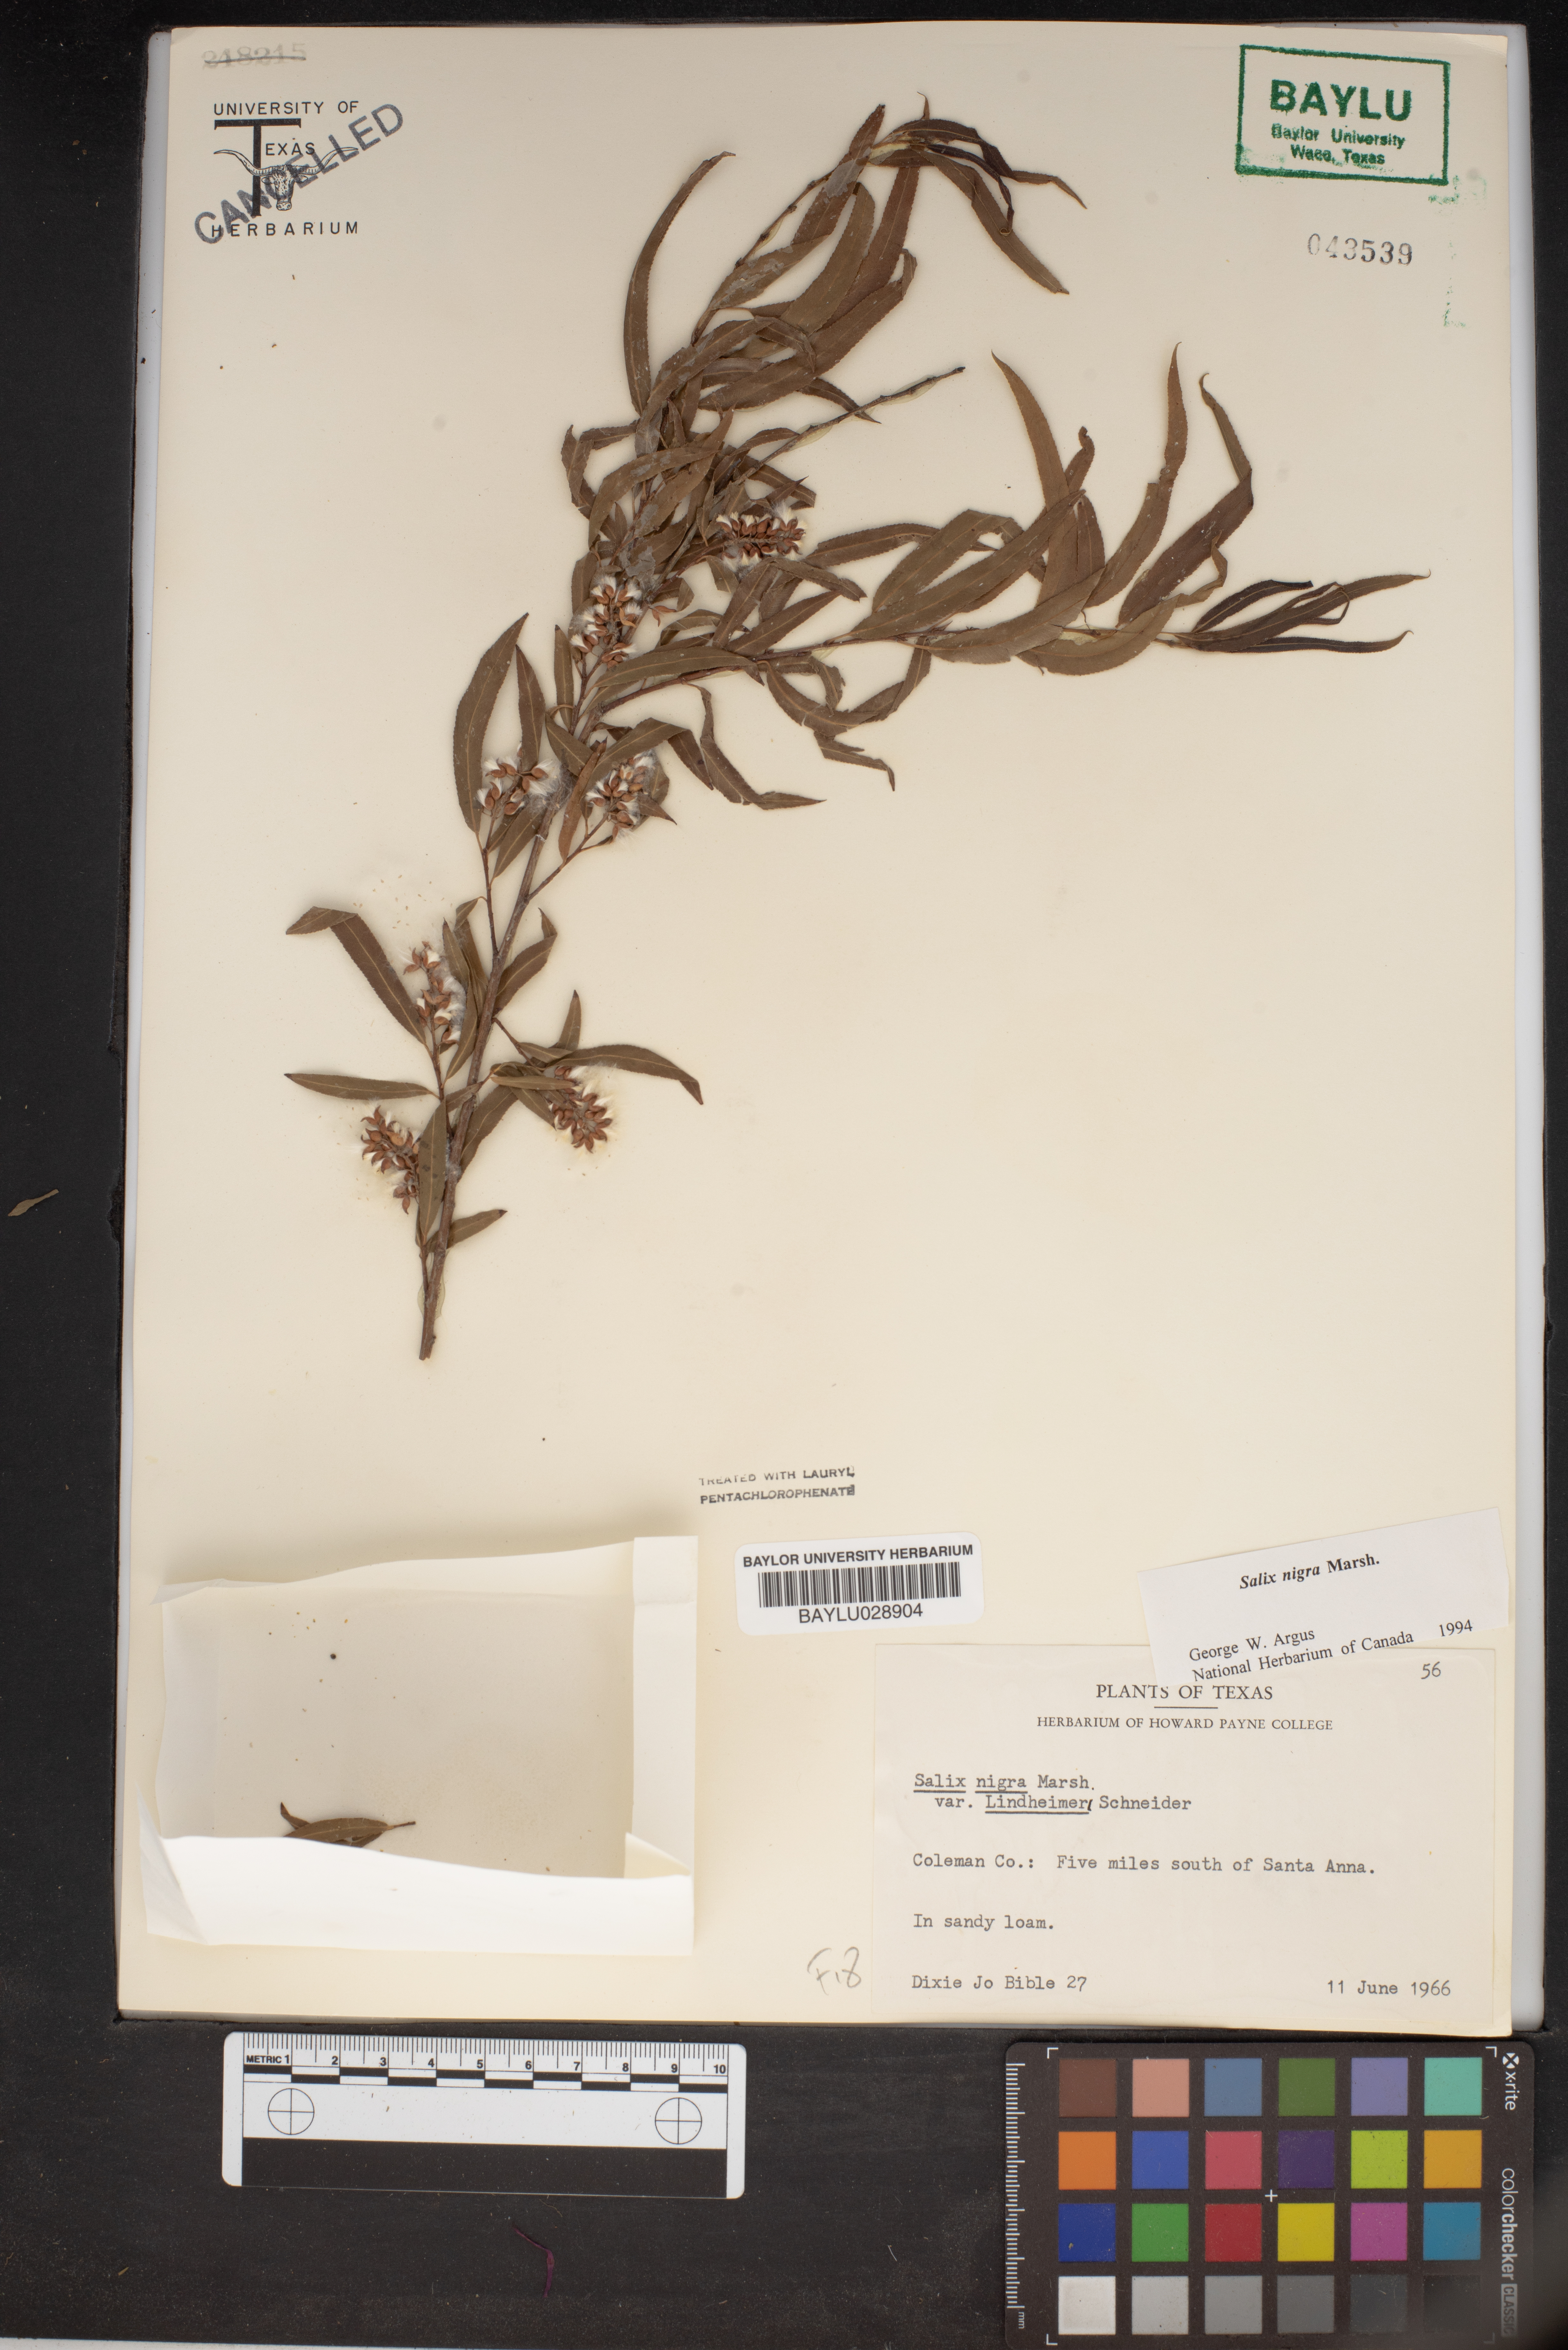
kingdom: Plantae
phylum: Tracheophyta
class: Magnoliopsida
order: Malpighiales
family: Salicaceae
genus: Salix
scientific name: Salix nigra
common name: Black willow
